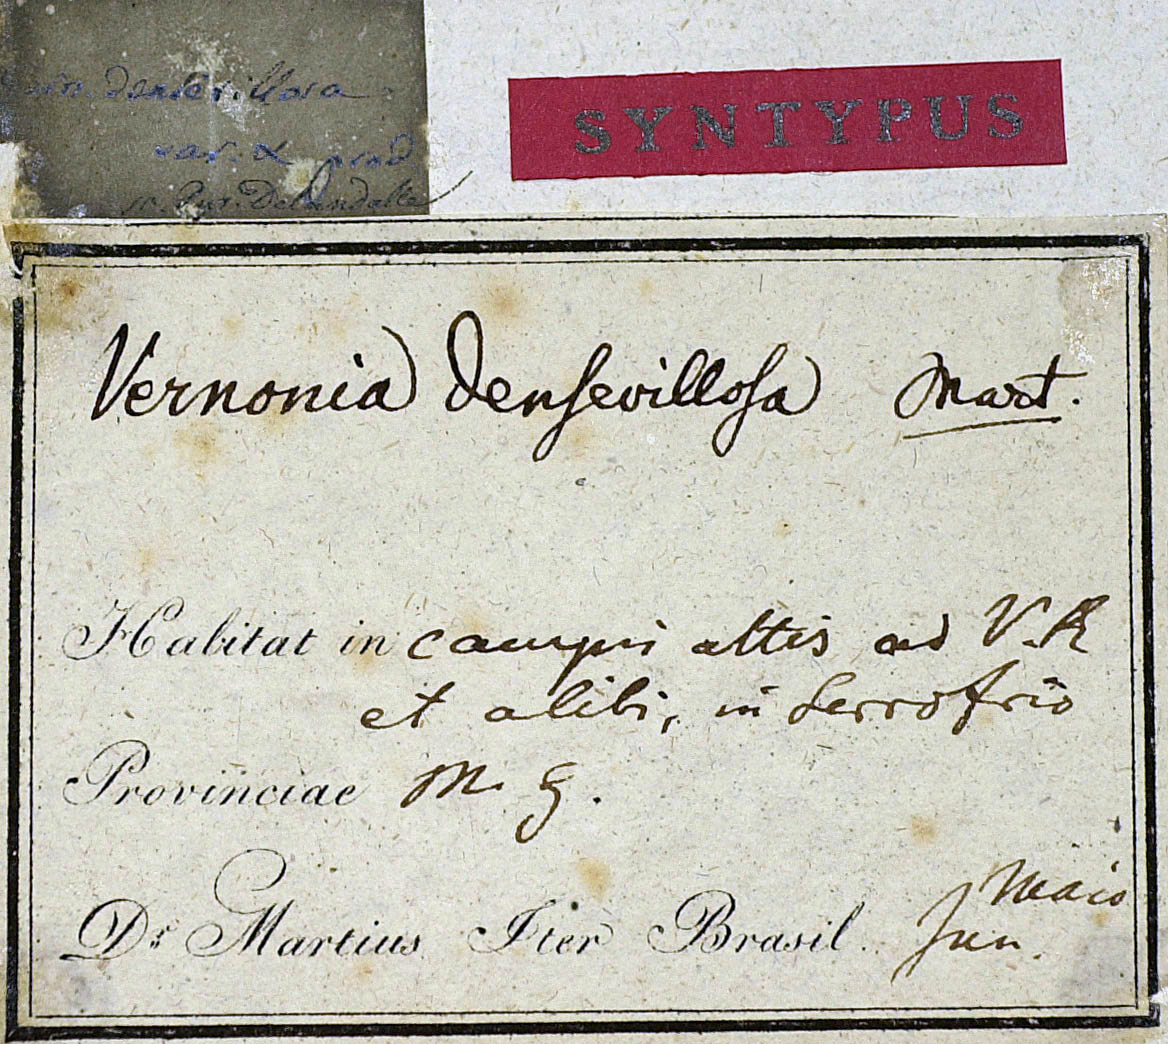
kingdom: Plantae
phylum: Tracheophyta
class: Magnoliopsida
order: Asterales
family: Asteraceae
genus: Chrysolaena
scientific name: Chrysolaena obovata
